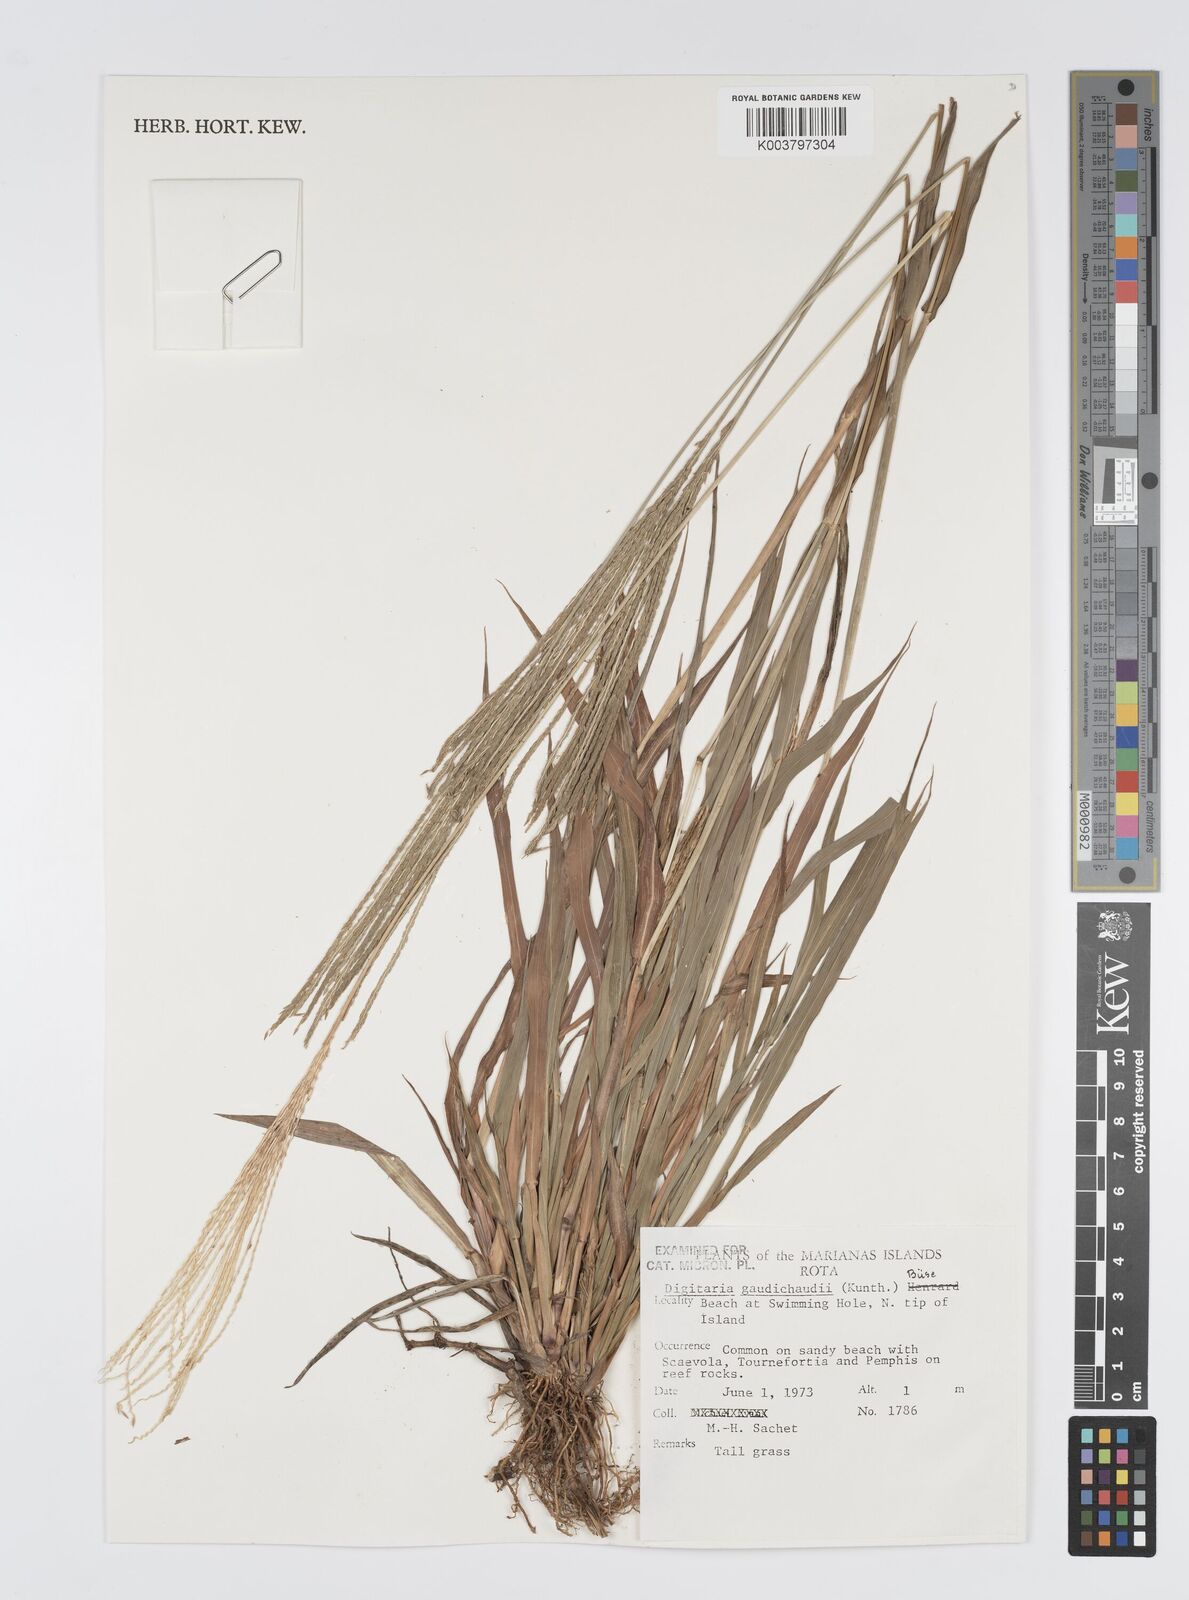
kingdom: Plantae
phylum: Tracheophyta
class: Liliopsida
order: Poales
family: Poaceae
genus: Digitaria
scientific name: Digitaria gaudichaudii
